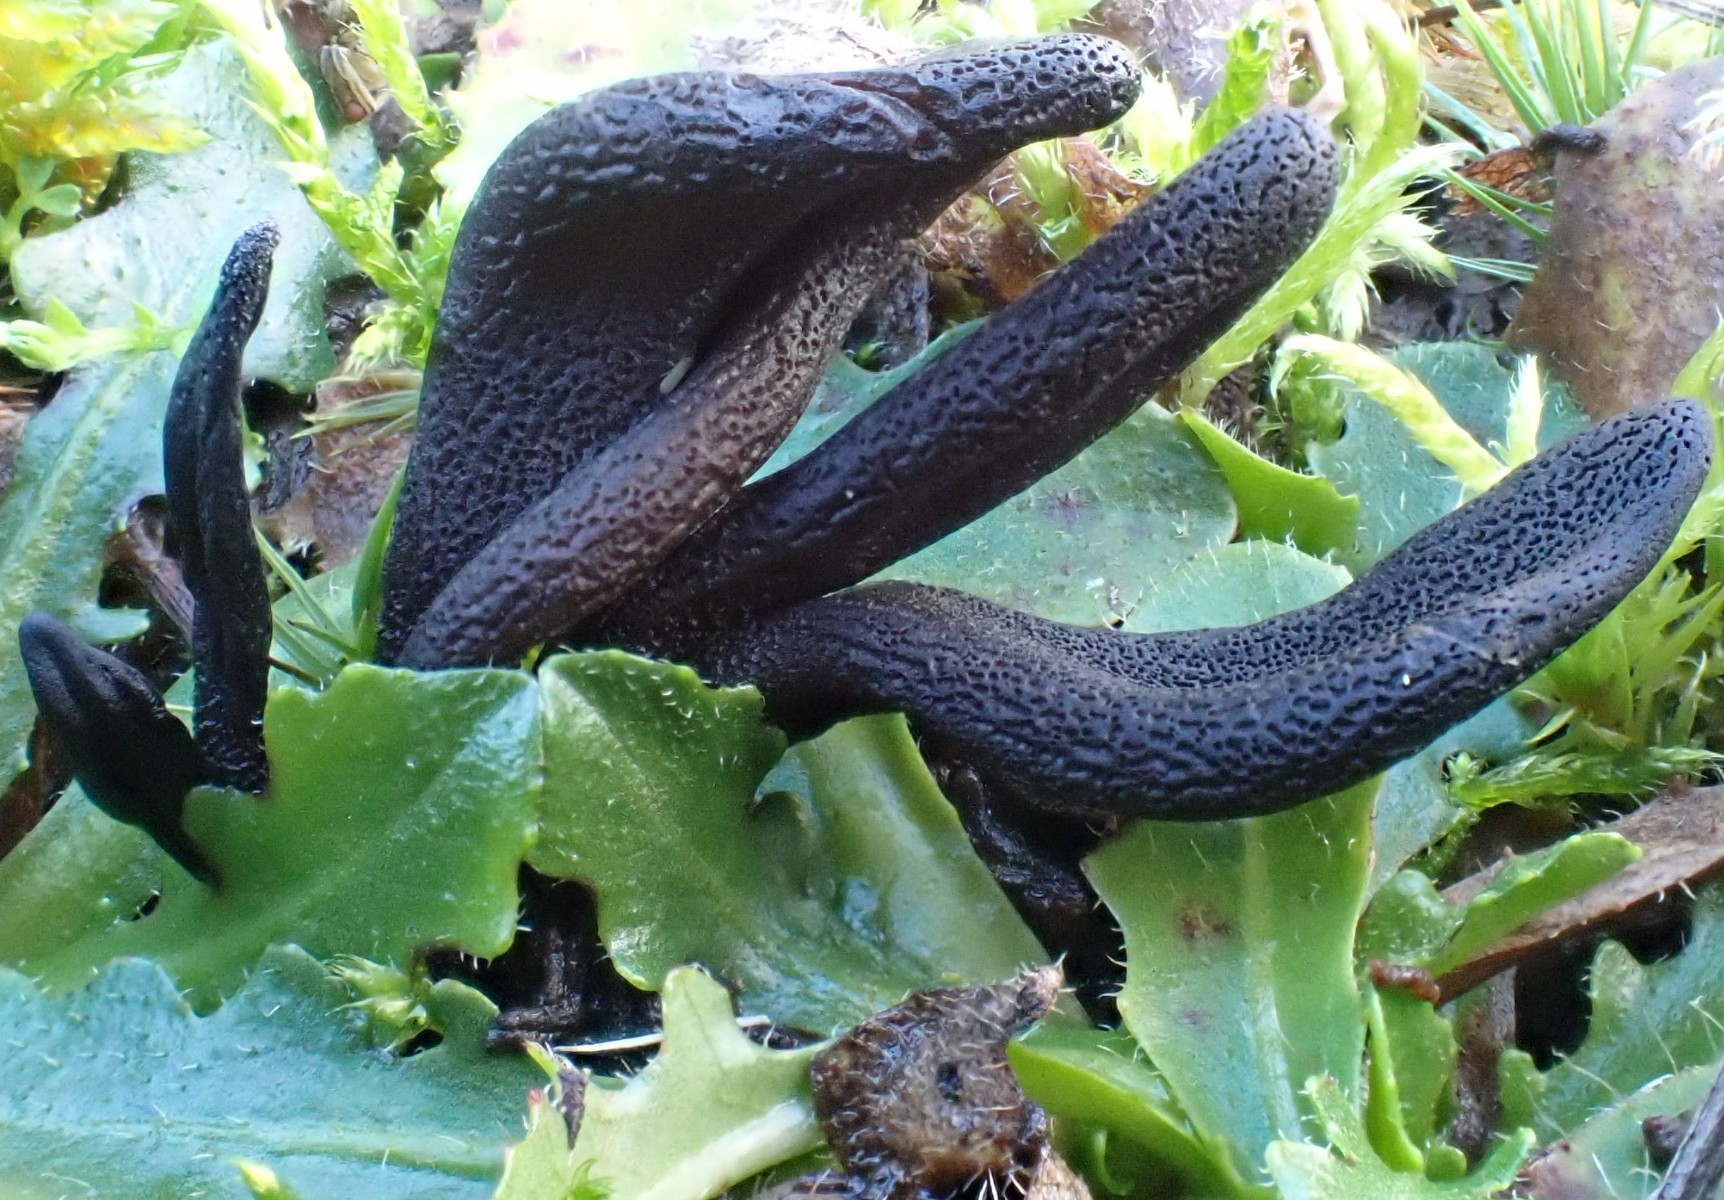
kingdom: Fungi
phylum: Ascomycota
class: Geoglossomycetes
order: Geoglossales
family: Geoglossaceae
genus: Geoglossum
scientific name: Geoglossum fallax
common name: småskællet jordtunge
